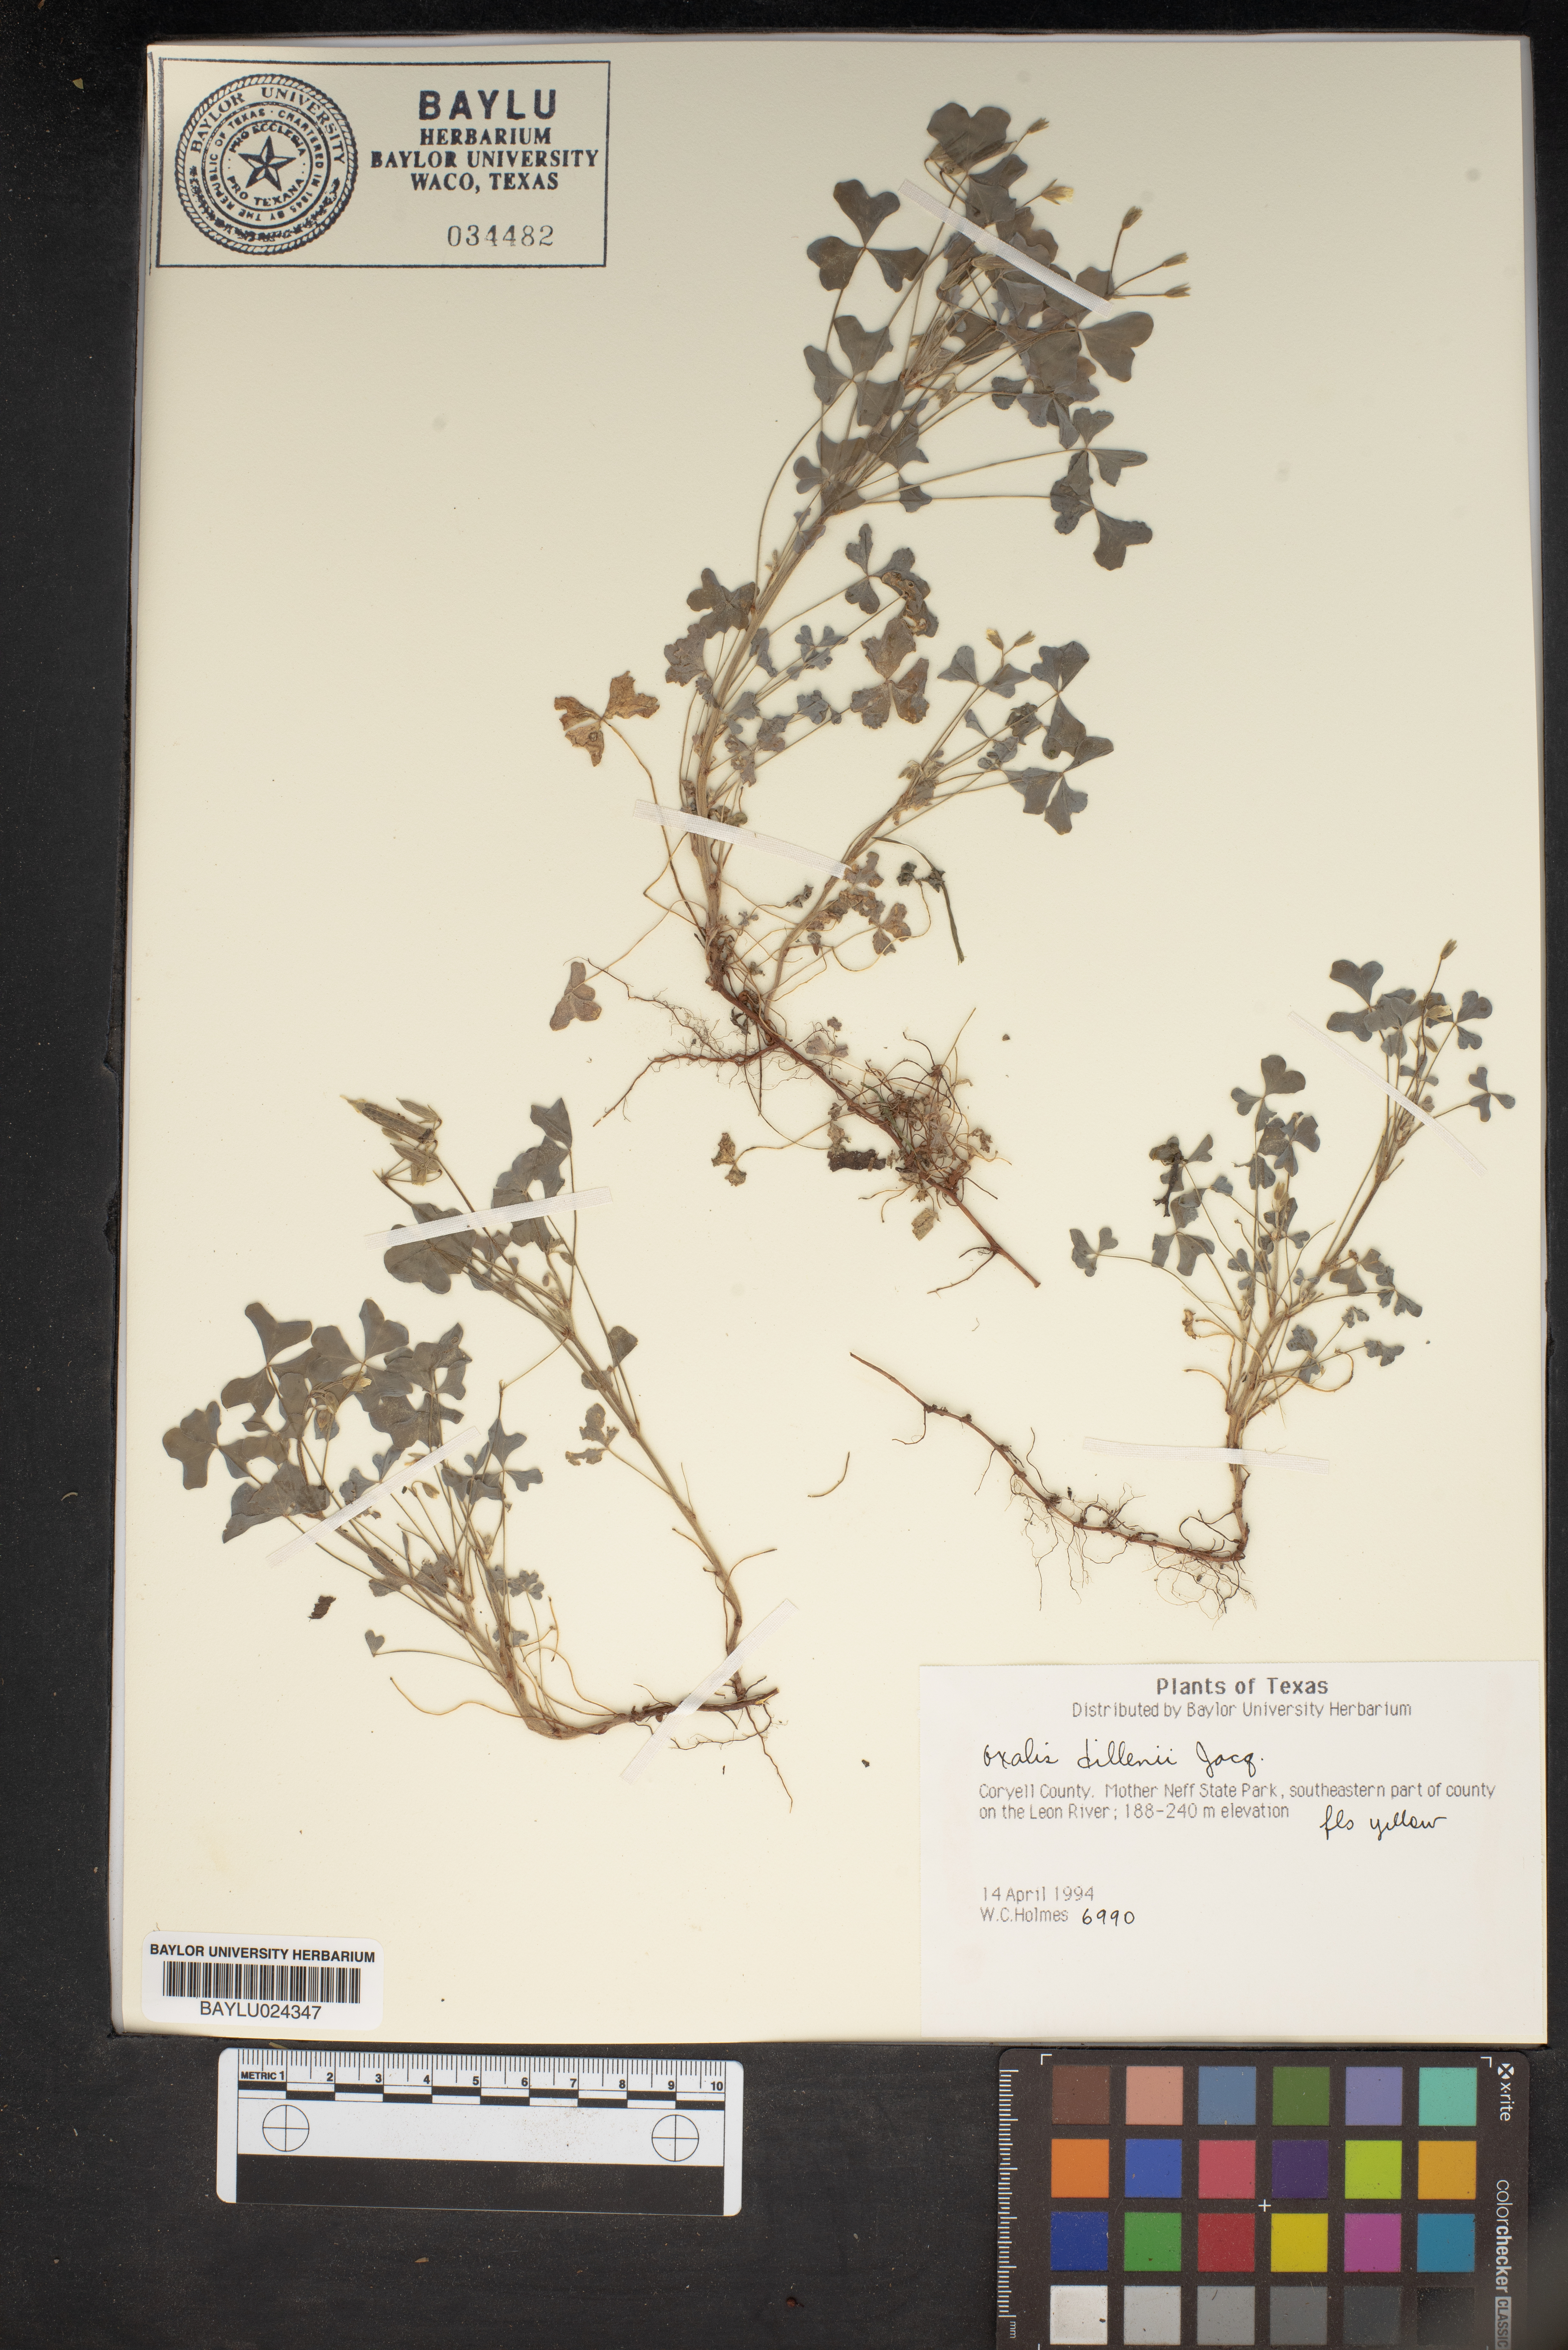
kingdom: Plantae
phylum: Tracheophyta
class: Magnoliopsida
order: Oxalidales
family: Oxalidaceae
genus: Oxalis
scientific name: Oxalis dillenii
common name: Sussex yellow-sorrel
